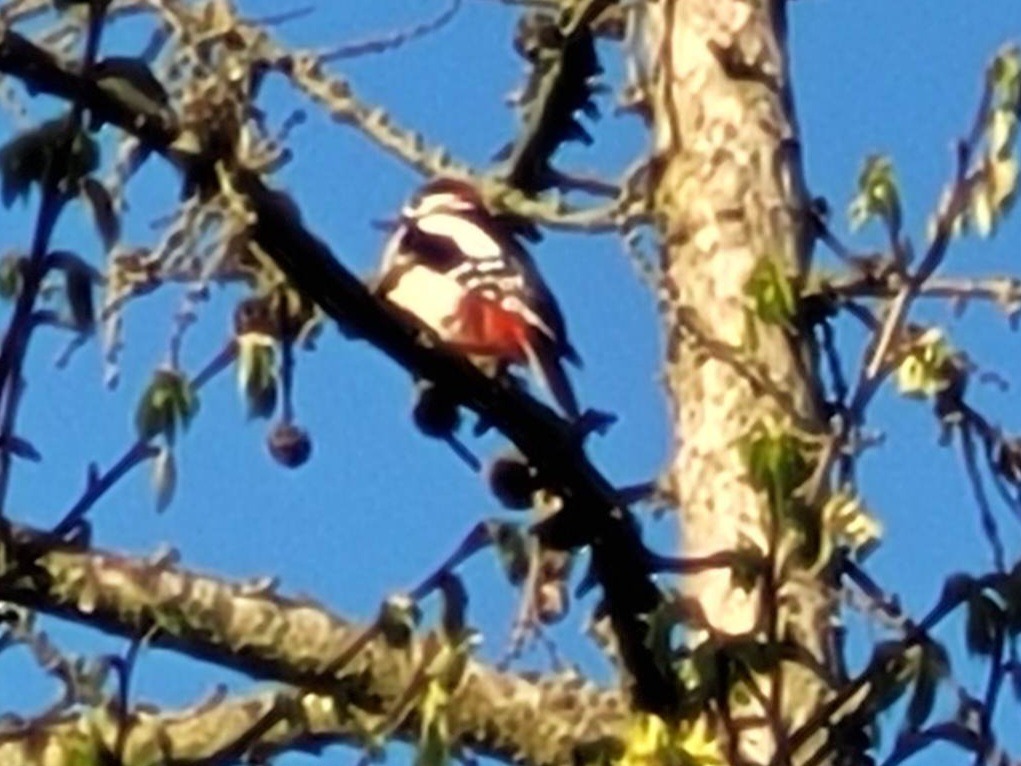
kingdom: Animalia
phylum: Chordata
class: Aves
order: Piciformes
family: Picidae
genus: Dendrocopos
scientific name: Dendrocopos major
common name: Stor flagspætte
